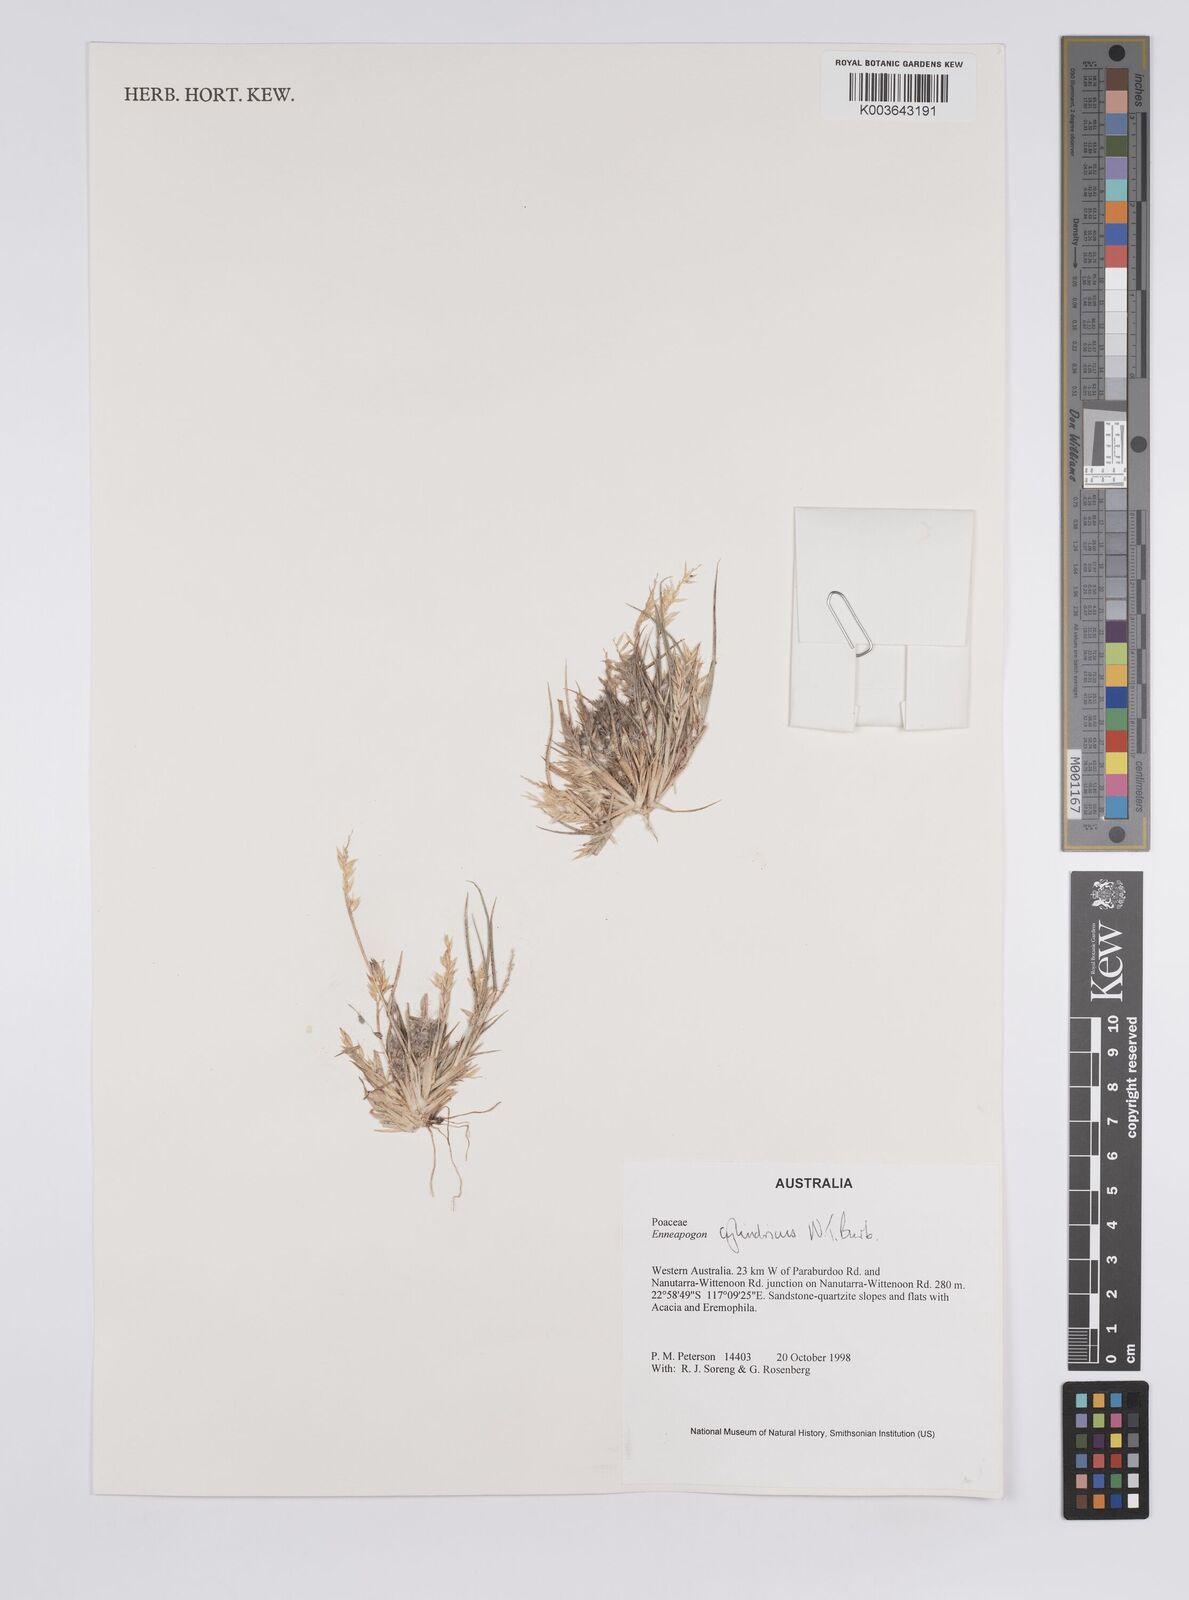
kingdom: Plantae
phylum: Tracheophyta
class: Liliopsida
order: Poales
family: Poaceae
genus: Enneapogon
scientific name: Enneapogon
